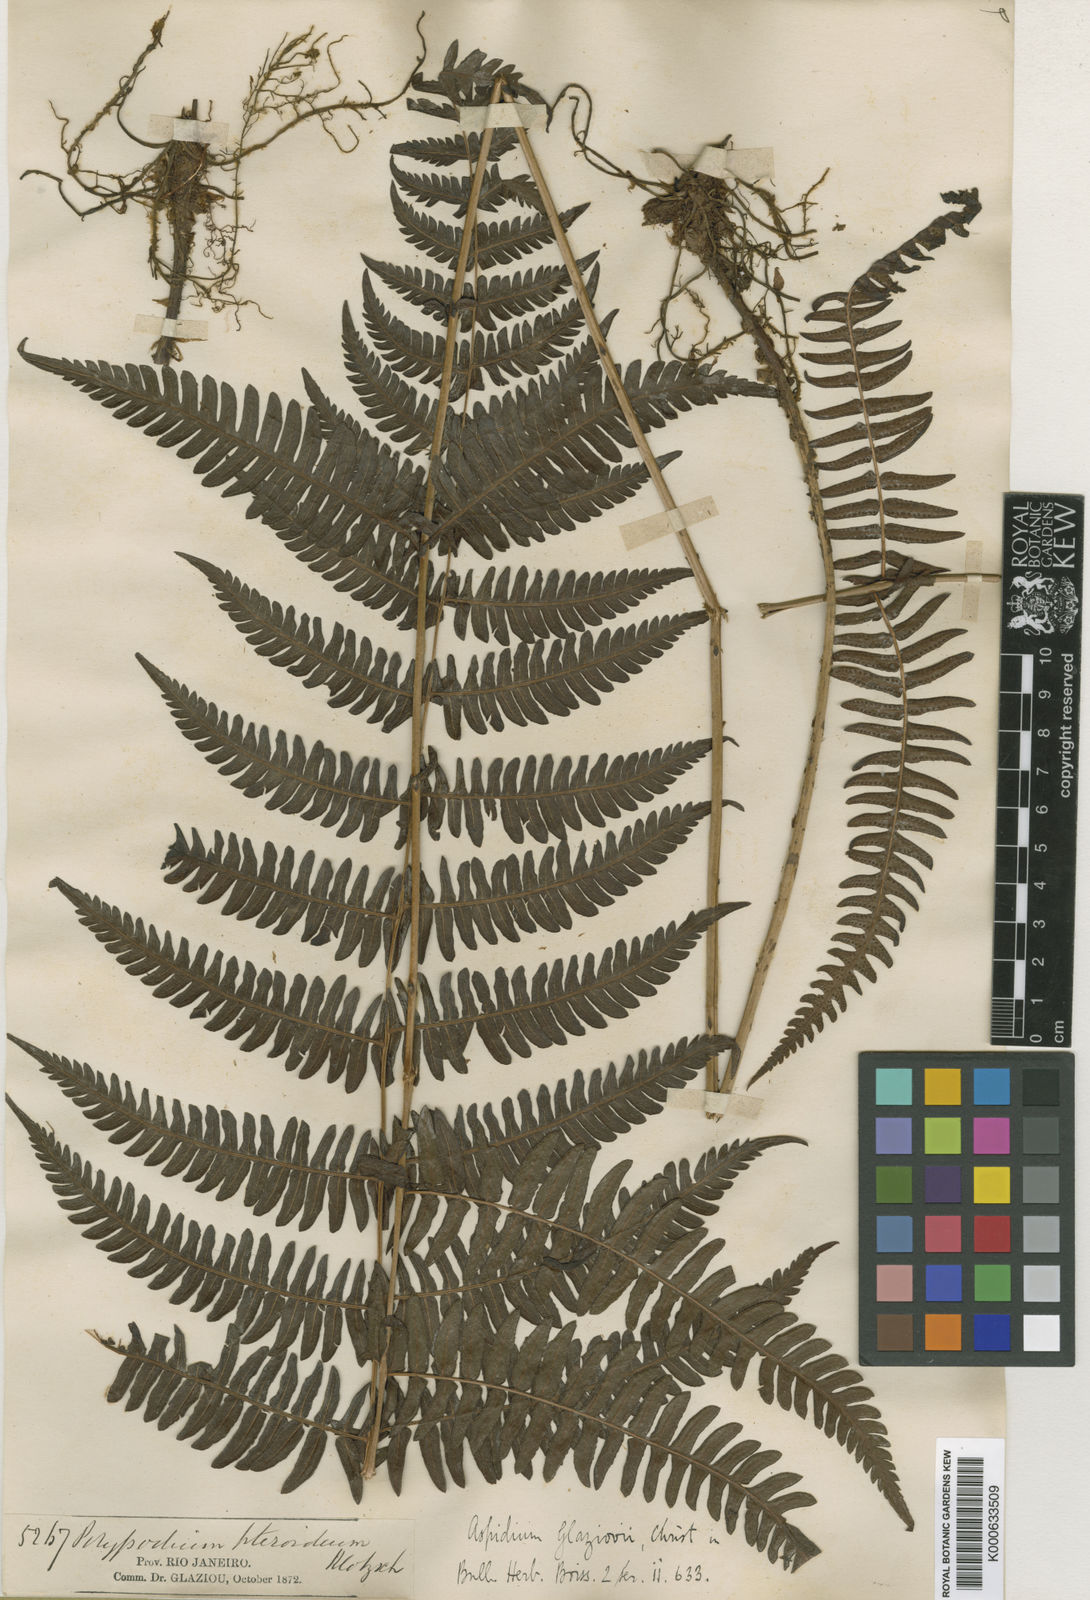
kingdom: Plantae
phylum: Tracheophyta
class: Polypodiopsida
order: Polypodiales
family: Thelypteridaceae
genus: Amauropelta
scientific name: Amauropelta patula
